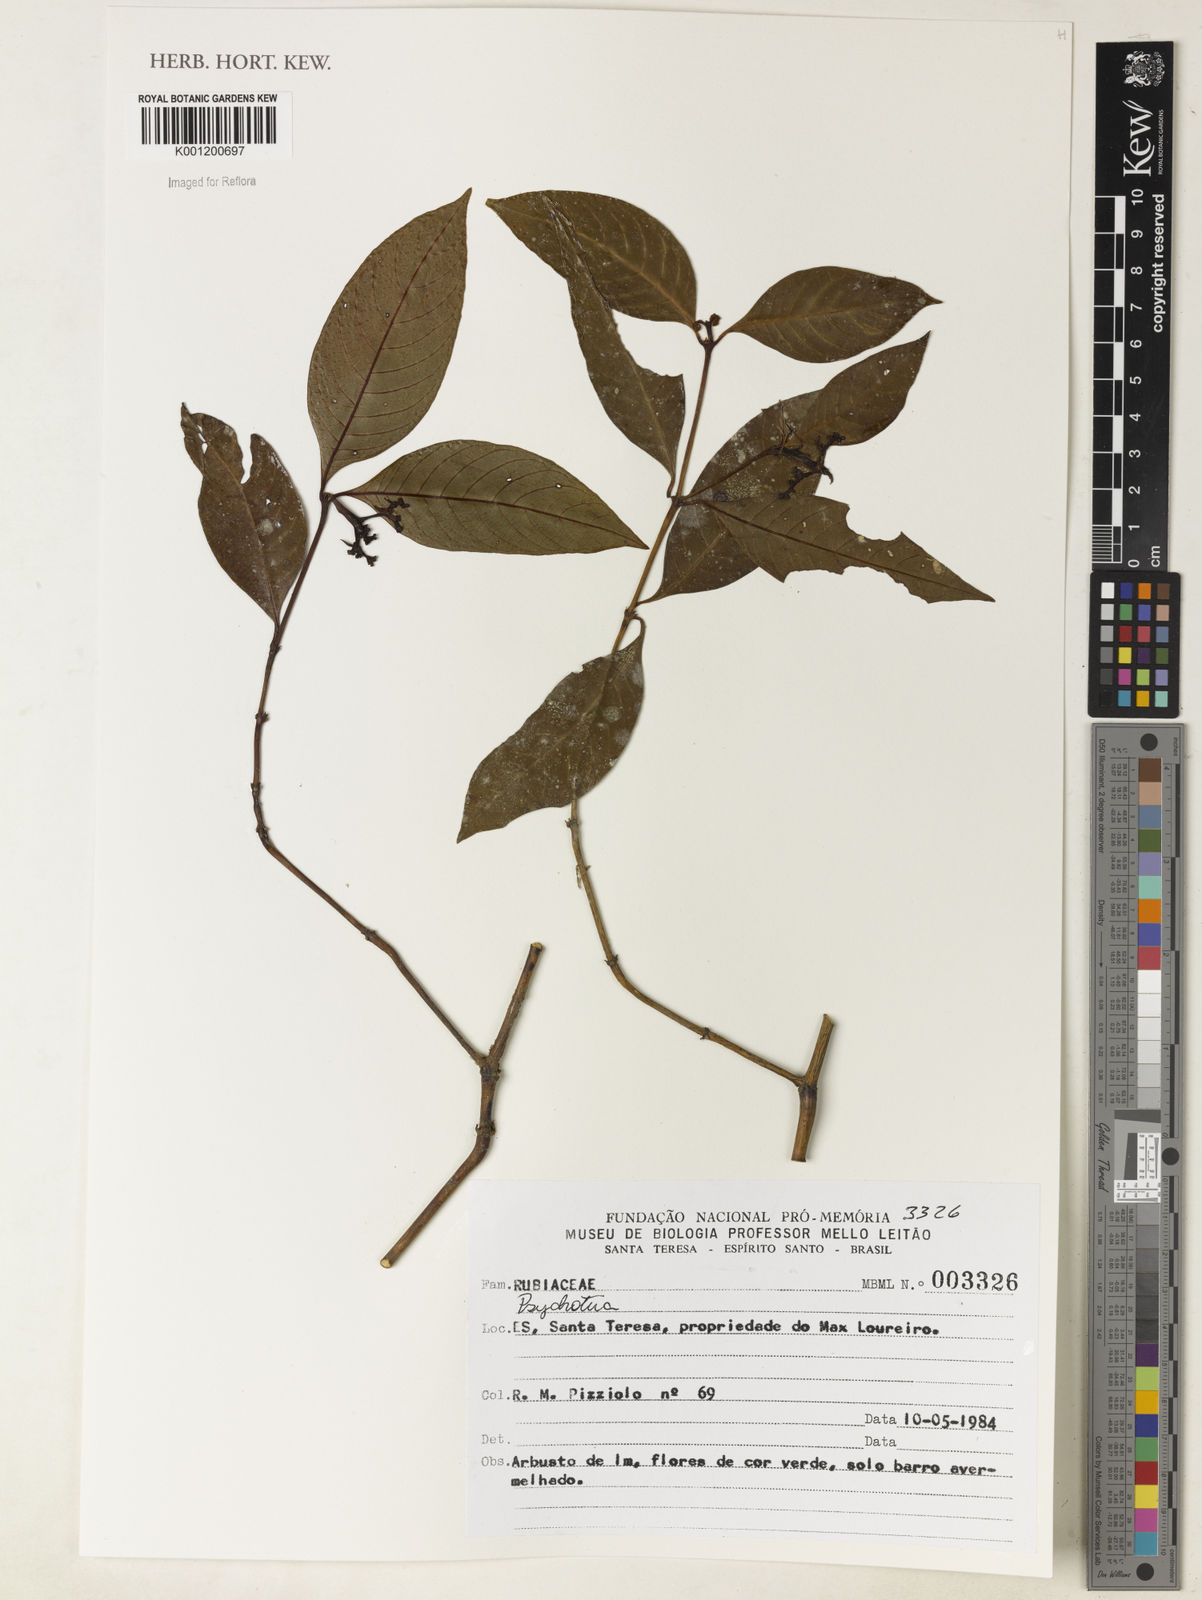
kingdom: Plantae
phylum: Tracheophyta
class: Magnoliopsida
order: Gentianales
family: Rubiaceae
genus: Psychotria
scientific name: Psychotria
